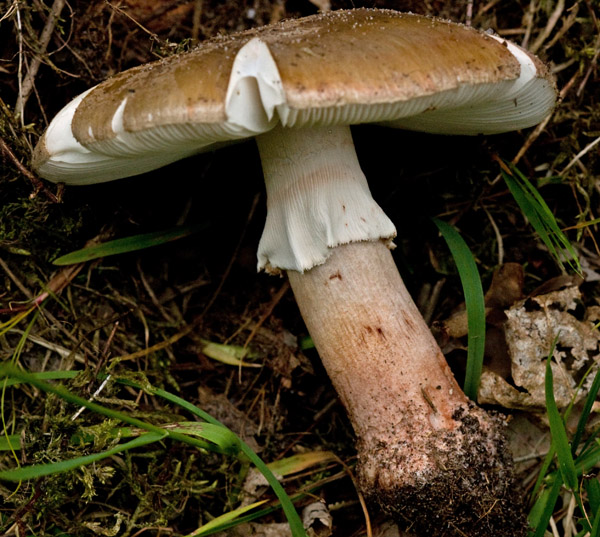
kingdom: Fungi
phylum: Basidiomycota
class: Agaricomycetes
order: Agaricales
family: Amanitaceae
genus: Amanita
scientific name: Amanita rubescens
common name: rødmende fluesvamp
